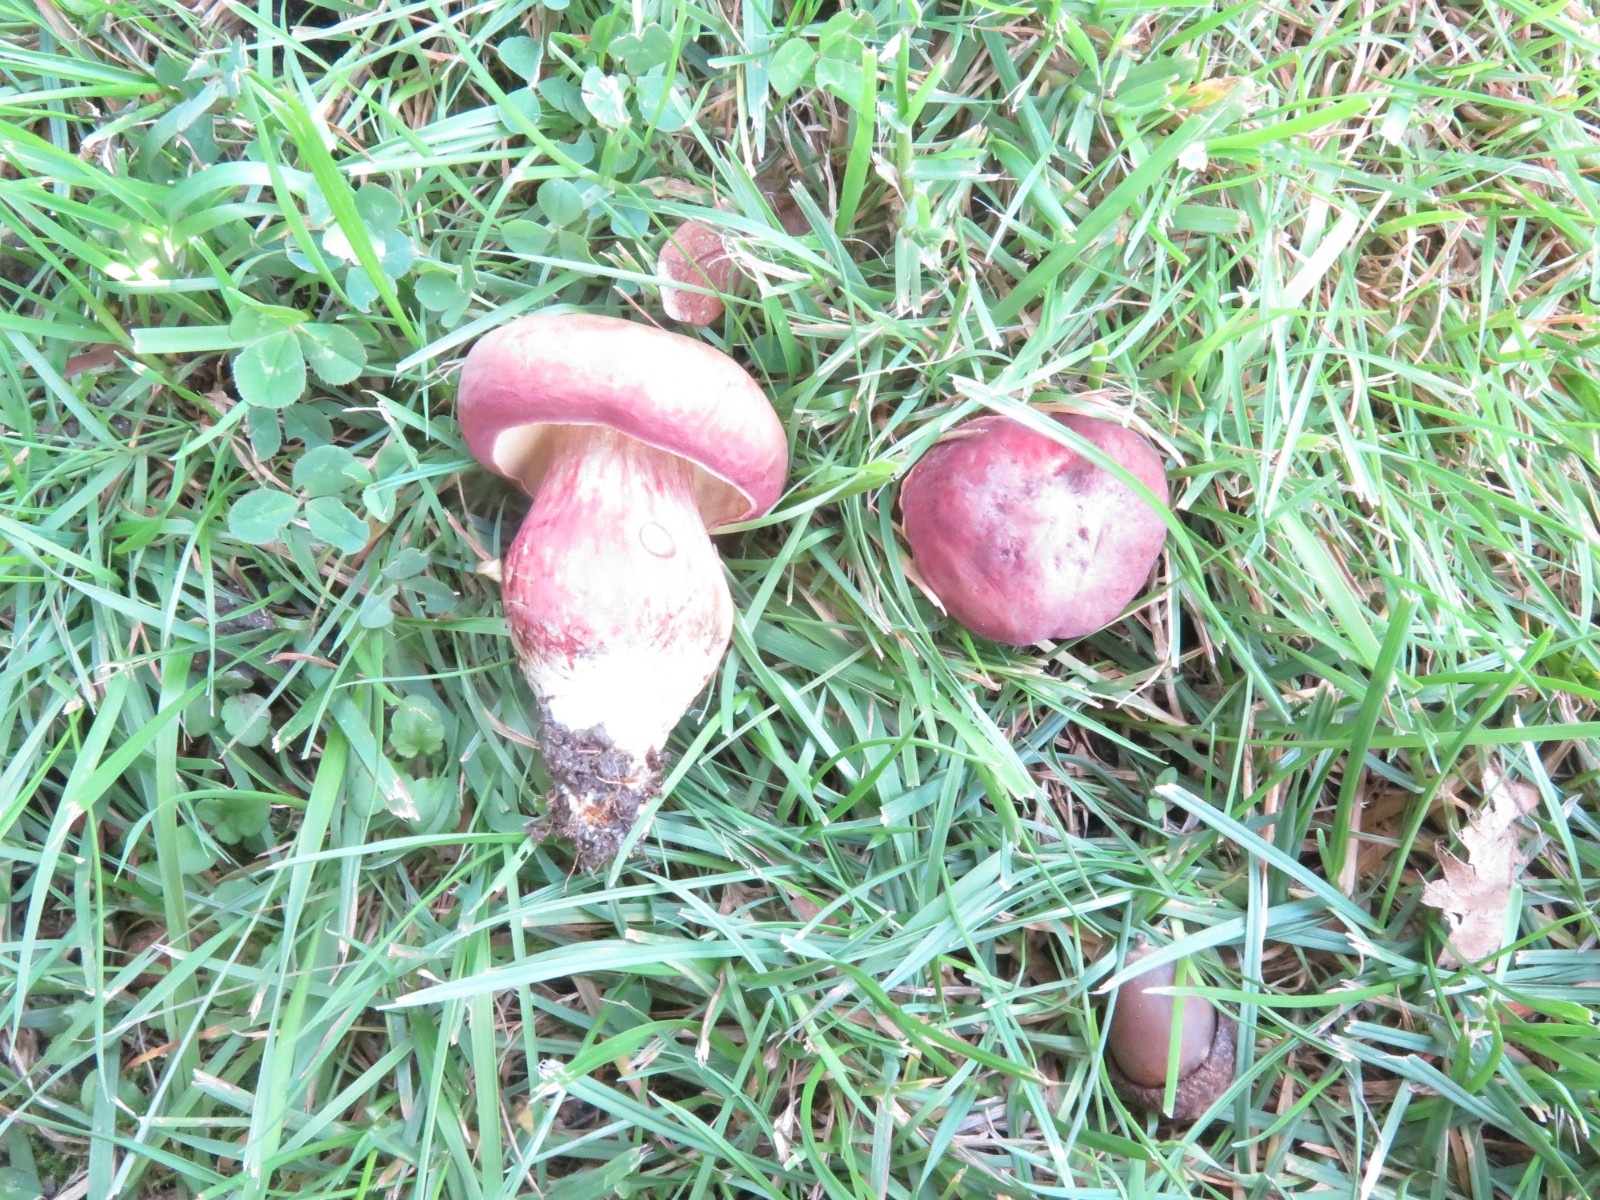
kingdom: Fungi
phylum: Basidiomycota
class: Agaricomycetes
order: Boletales
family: Boletaceae
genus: Hortiboletus
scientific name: Hortiboletus rubellus
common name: blodrød rørhat
